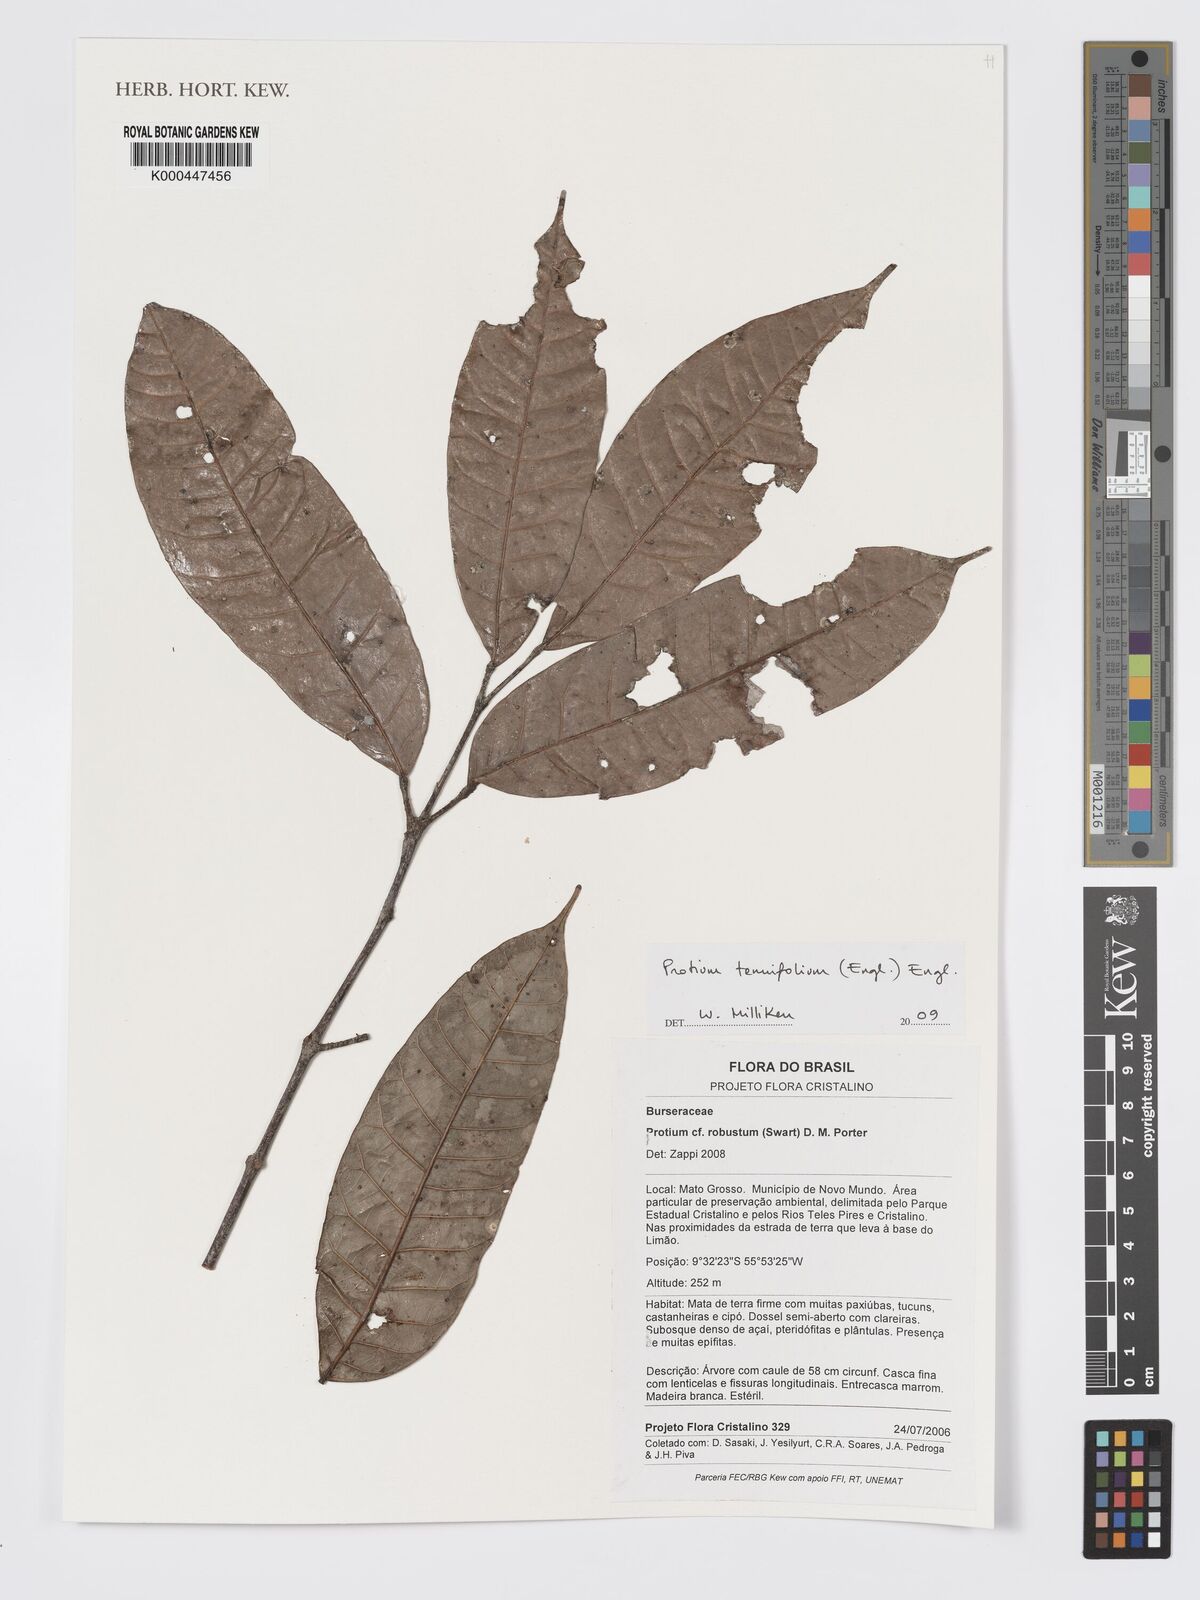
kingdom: Plantae
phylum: Tracheophyta
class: Magnoliopsida
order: Sapindales
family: Burseraceae
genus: Protium
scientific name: Protium tenuifolium
